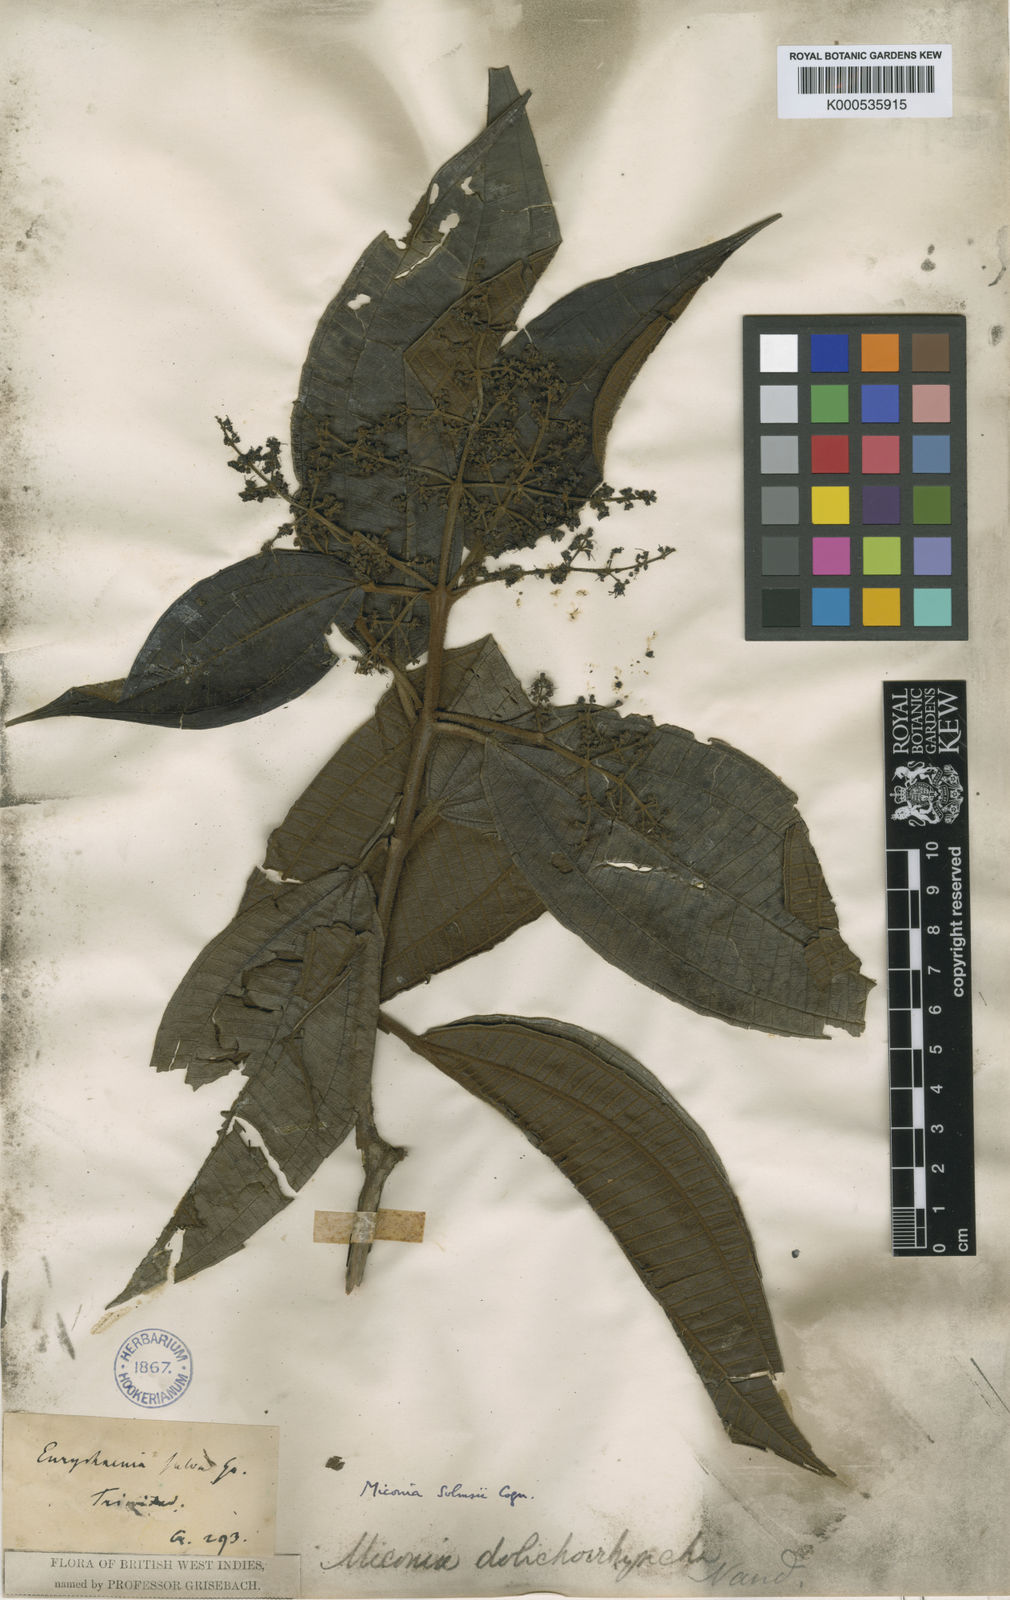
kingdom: Plantae
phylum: Tracheophyta
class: Magnoliopsida
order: Myrtales
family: Melastomataceae
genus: Miconia
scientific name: Miconia dolichorrhyncha
